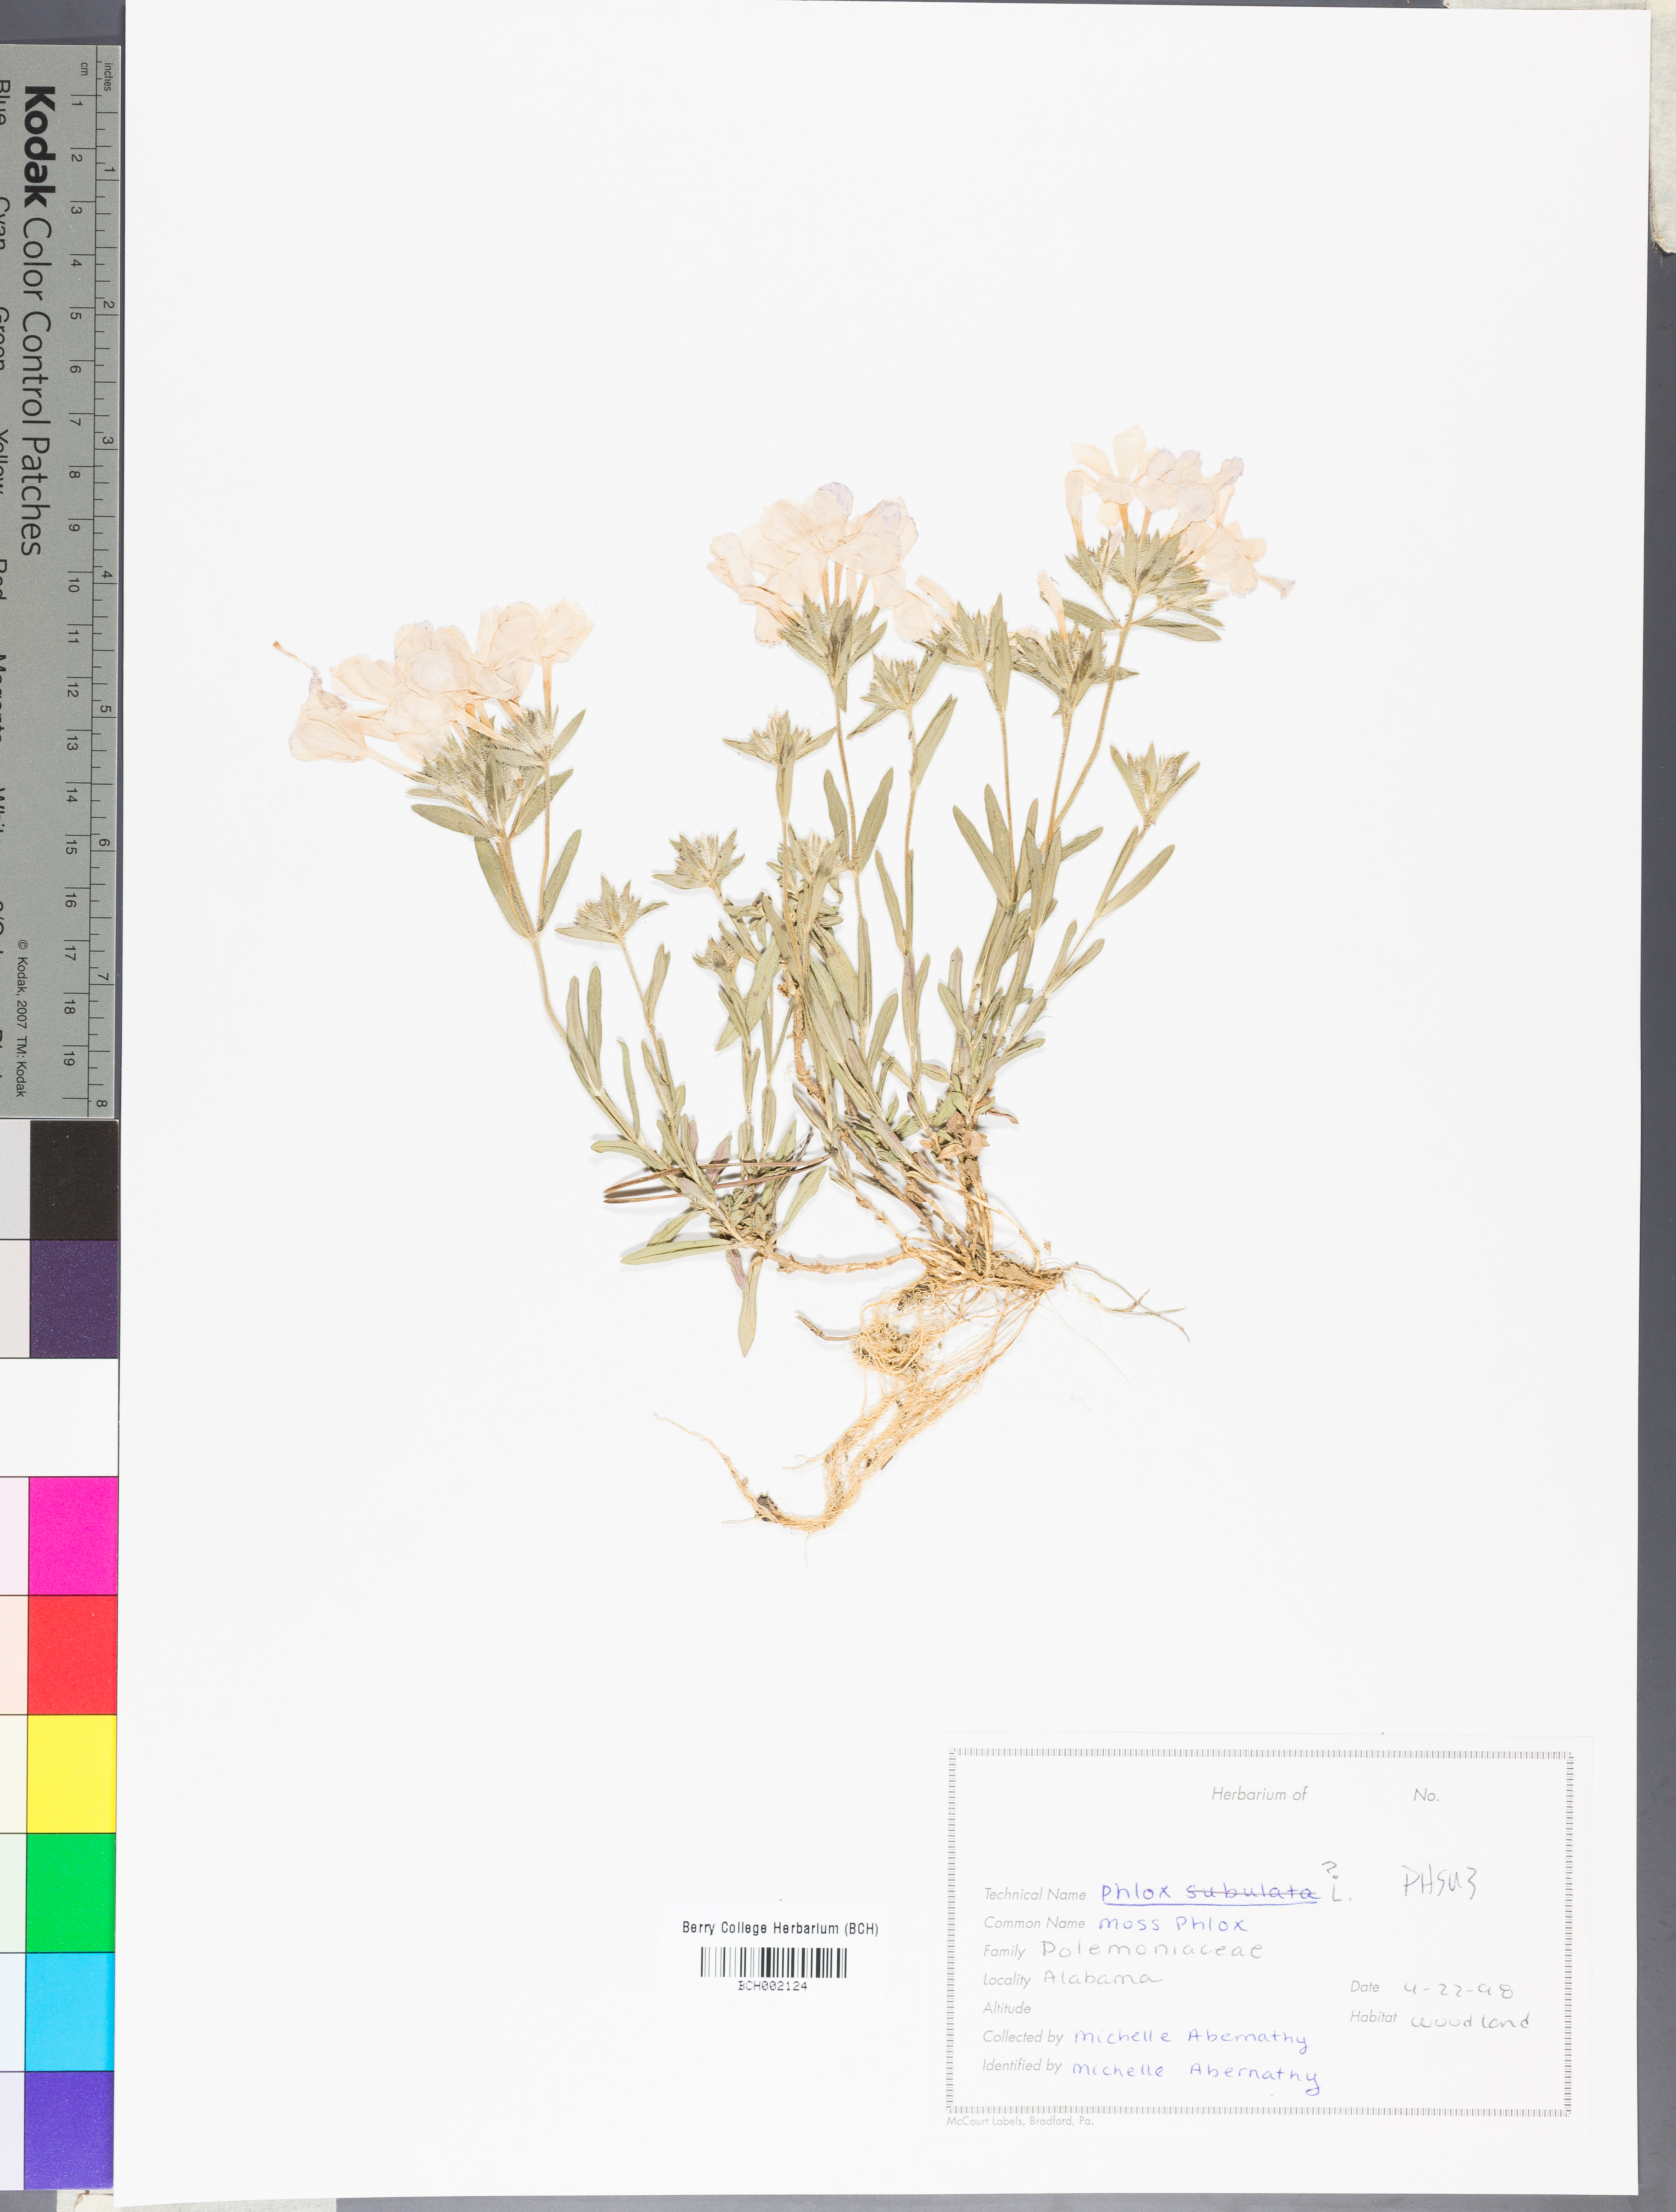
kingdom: Plantae
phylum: Tracheophyta
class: Magnoliopsida
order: Ericales
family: Polemoniaceae
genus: Phlox
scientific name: Phlox subulata
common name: Moss phlox
